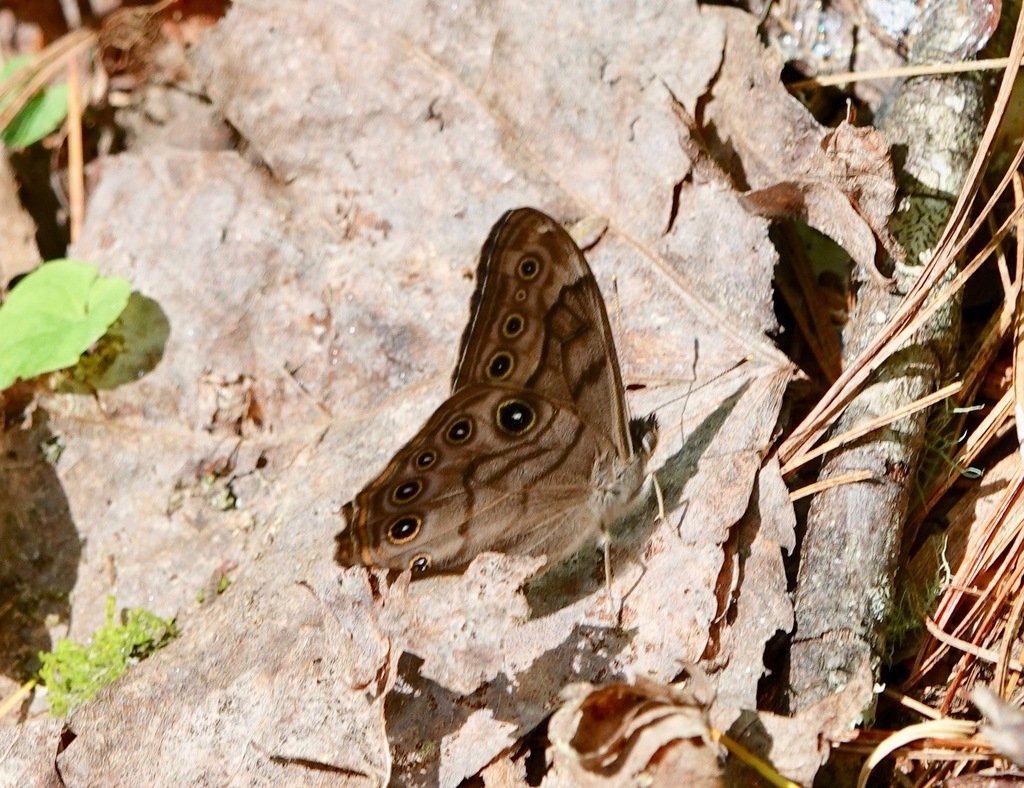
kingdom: Animalia
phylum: Arthropoda
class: Insecta
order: Lepidoptera
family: Nymphalidae
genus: Lethe
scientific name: Lethe creola
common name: Creole Pearly-Eye
